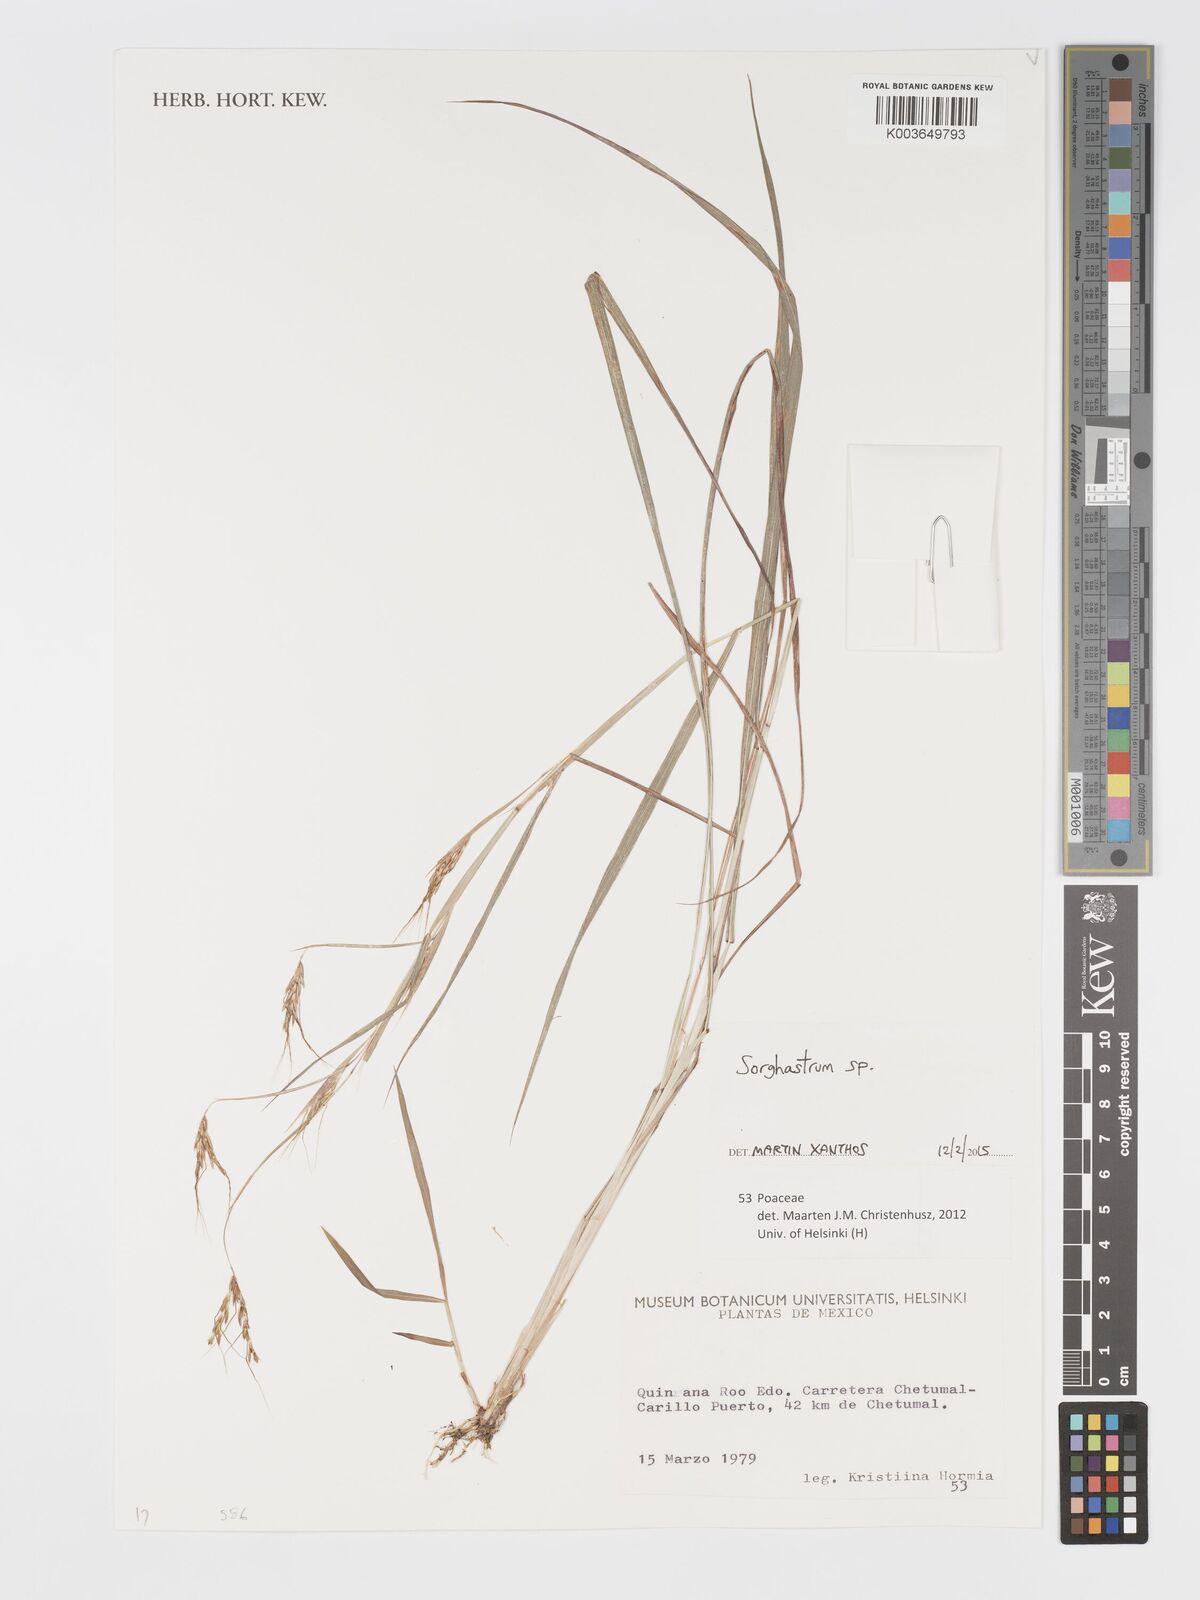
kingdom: Plantae
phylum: Tracheophyta
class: Liliopsida
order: Poales
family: Poaceae
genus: Sorghastrum
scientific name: Sorghastrum
